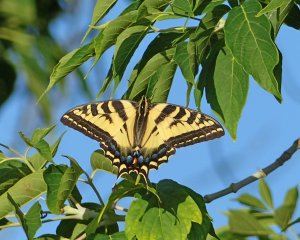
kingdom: Animalia
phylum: Arthropoda
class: Insecta
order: Lepidoptera
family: Papilionidae
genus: Pterourus
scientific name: Pterourus rutulus
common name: Western Tiger Swallowtail
